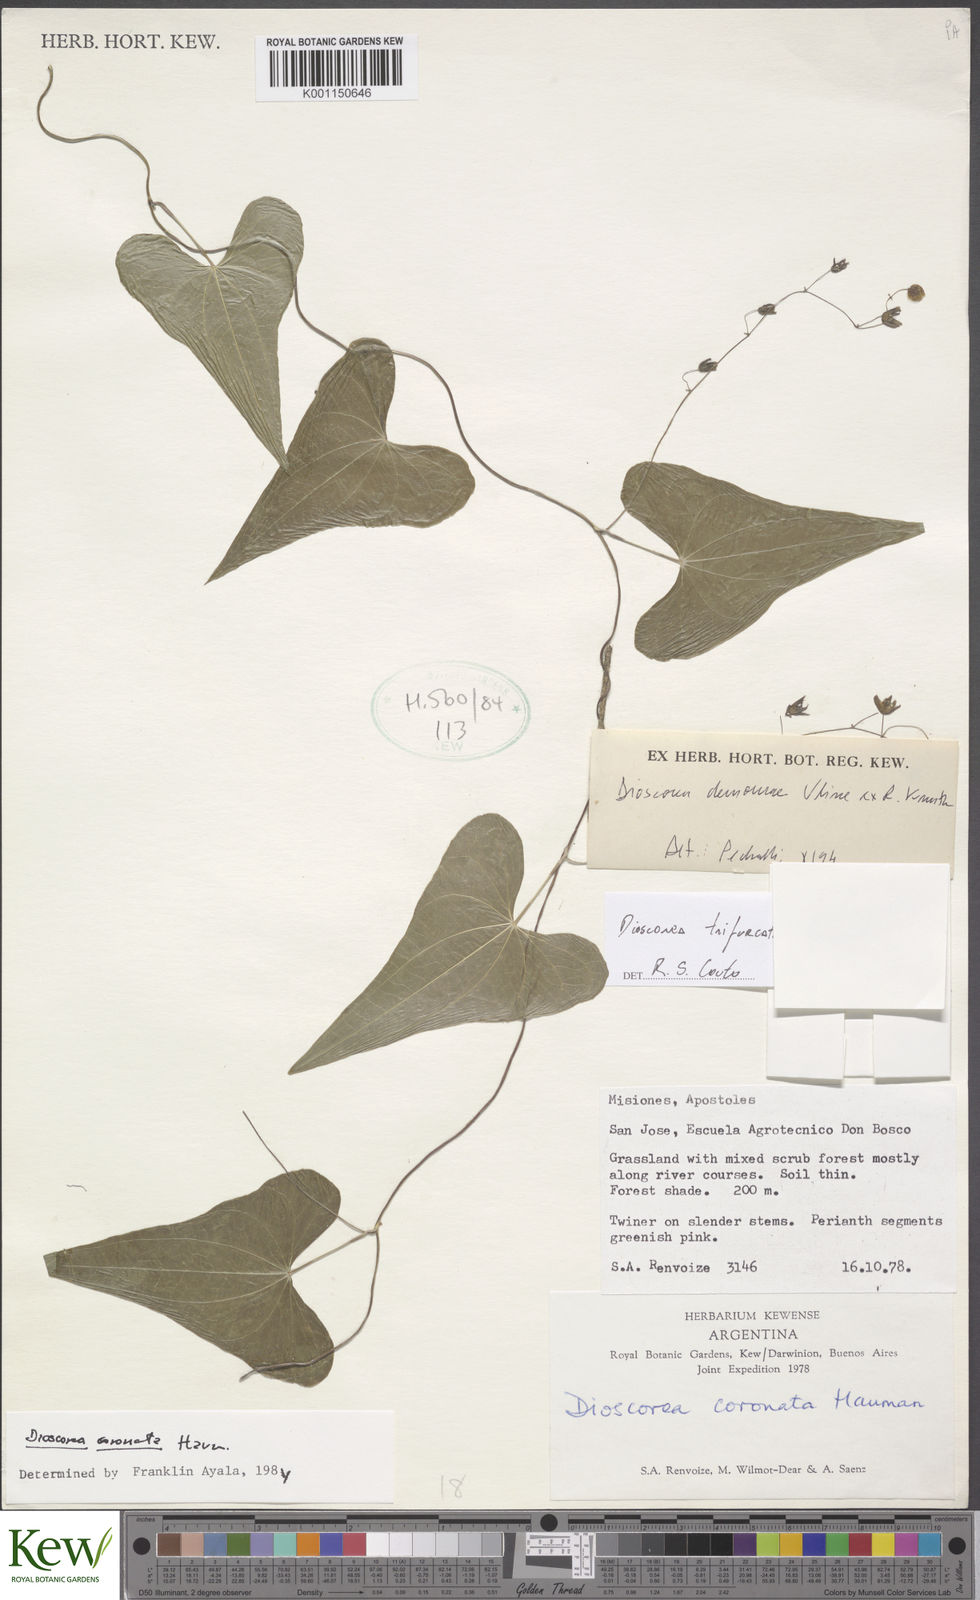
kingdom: Plantae
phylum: Tracheophyta
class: Liliopsida
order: Dioscoreales
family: Dioscoreaceae
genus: Dioscorea
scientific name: Dioscorea trifurcata
